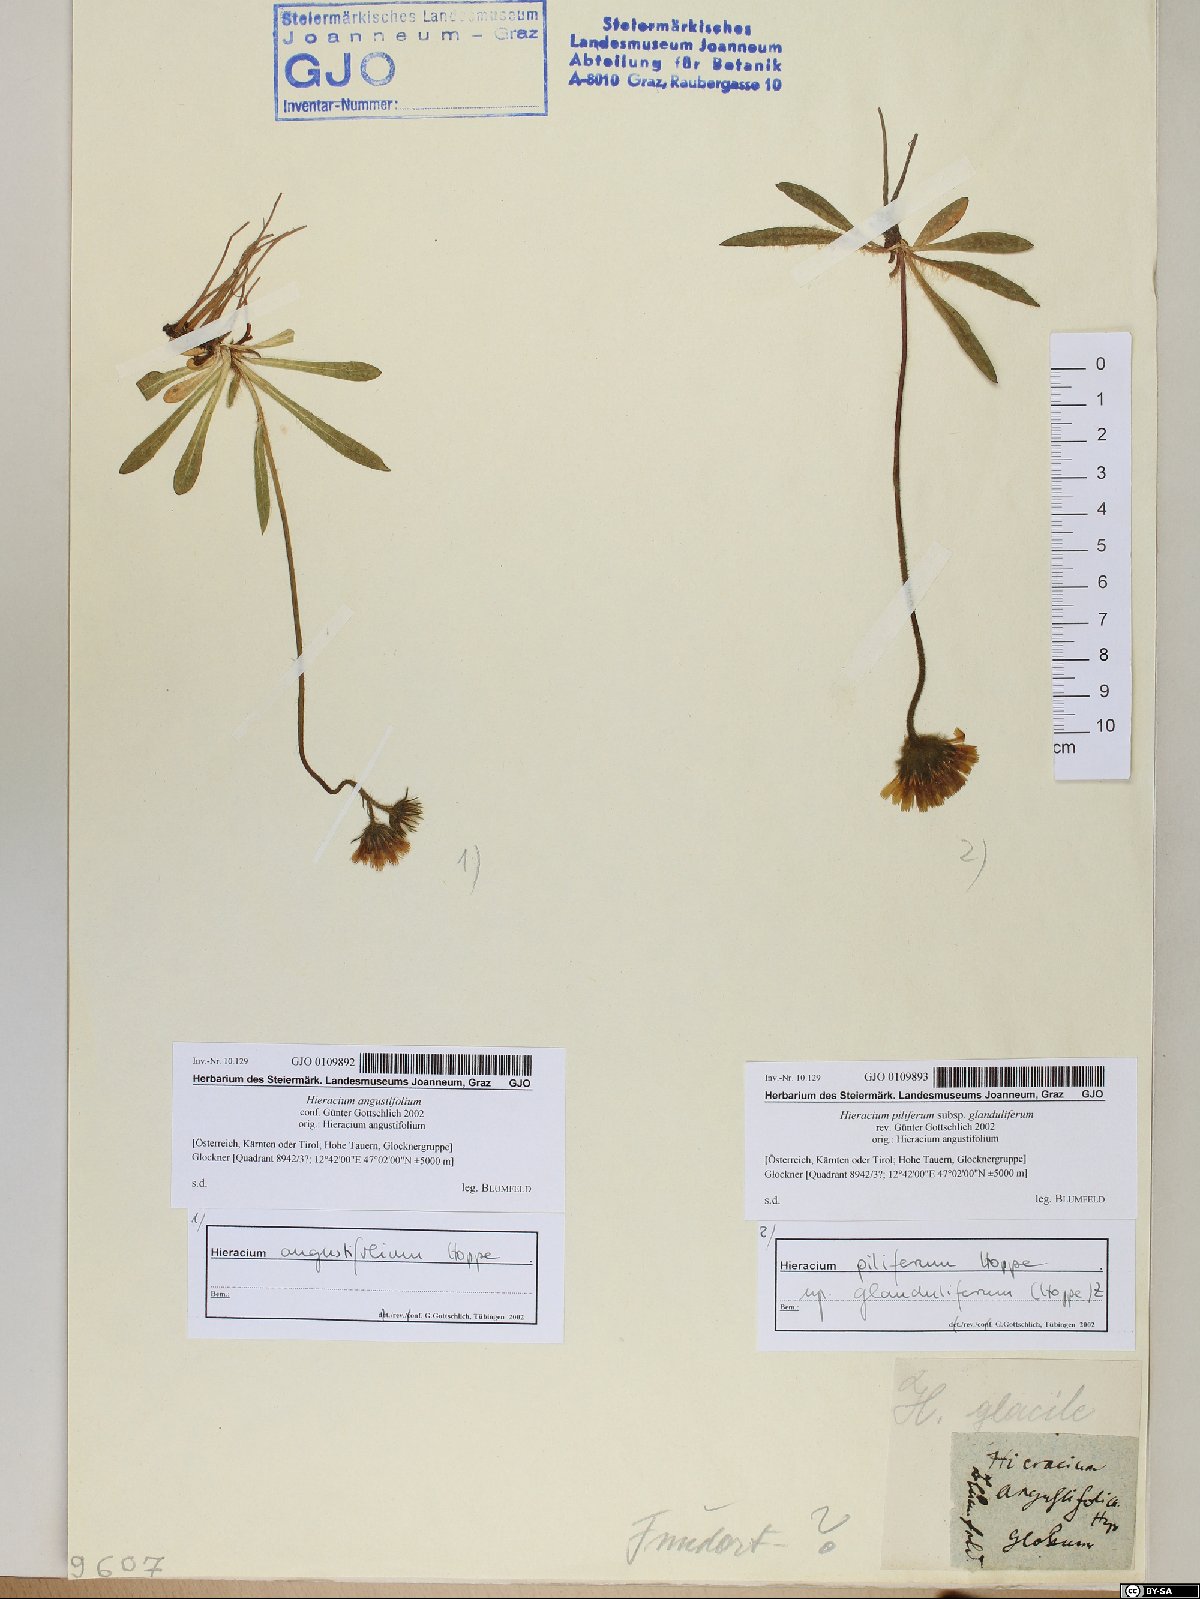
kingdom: Plantae
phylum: Tracheophyta
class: Magnoliopsida
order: Asterales
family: Asteraceae
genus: Hieracium
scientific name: Hieracium piliferum
